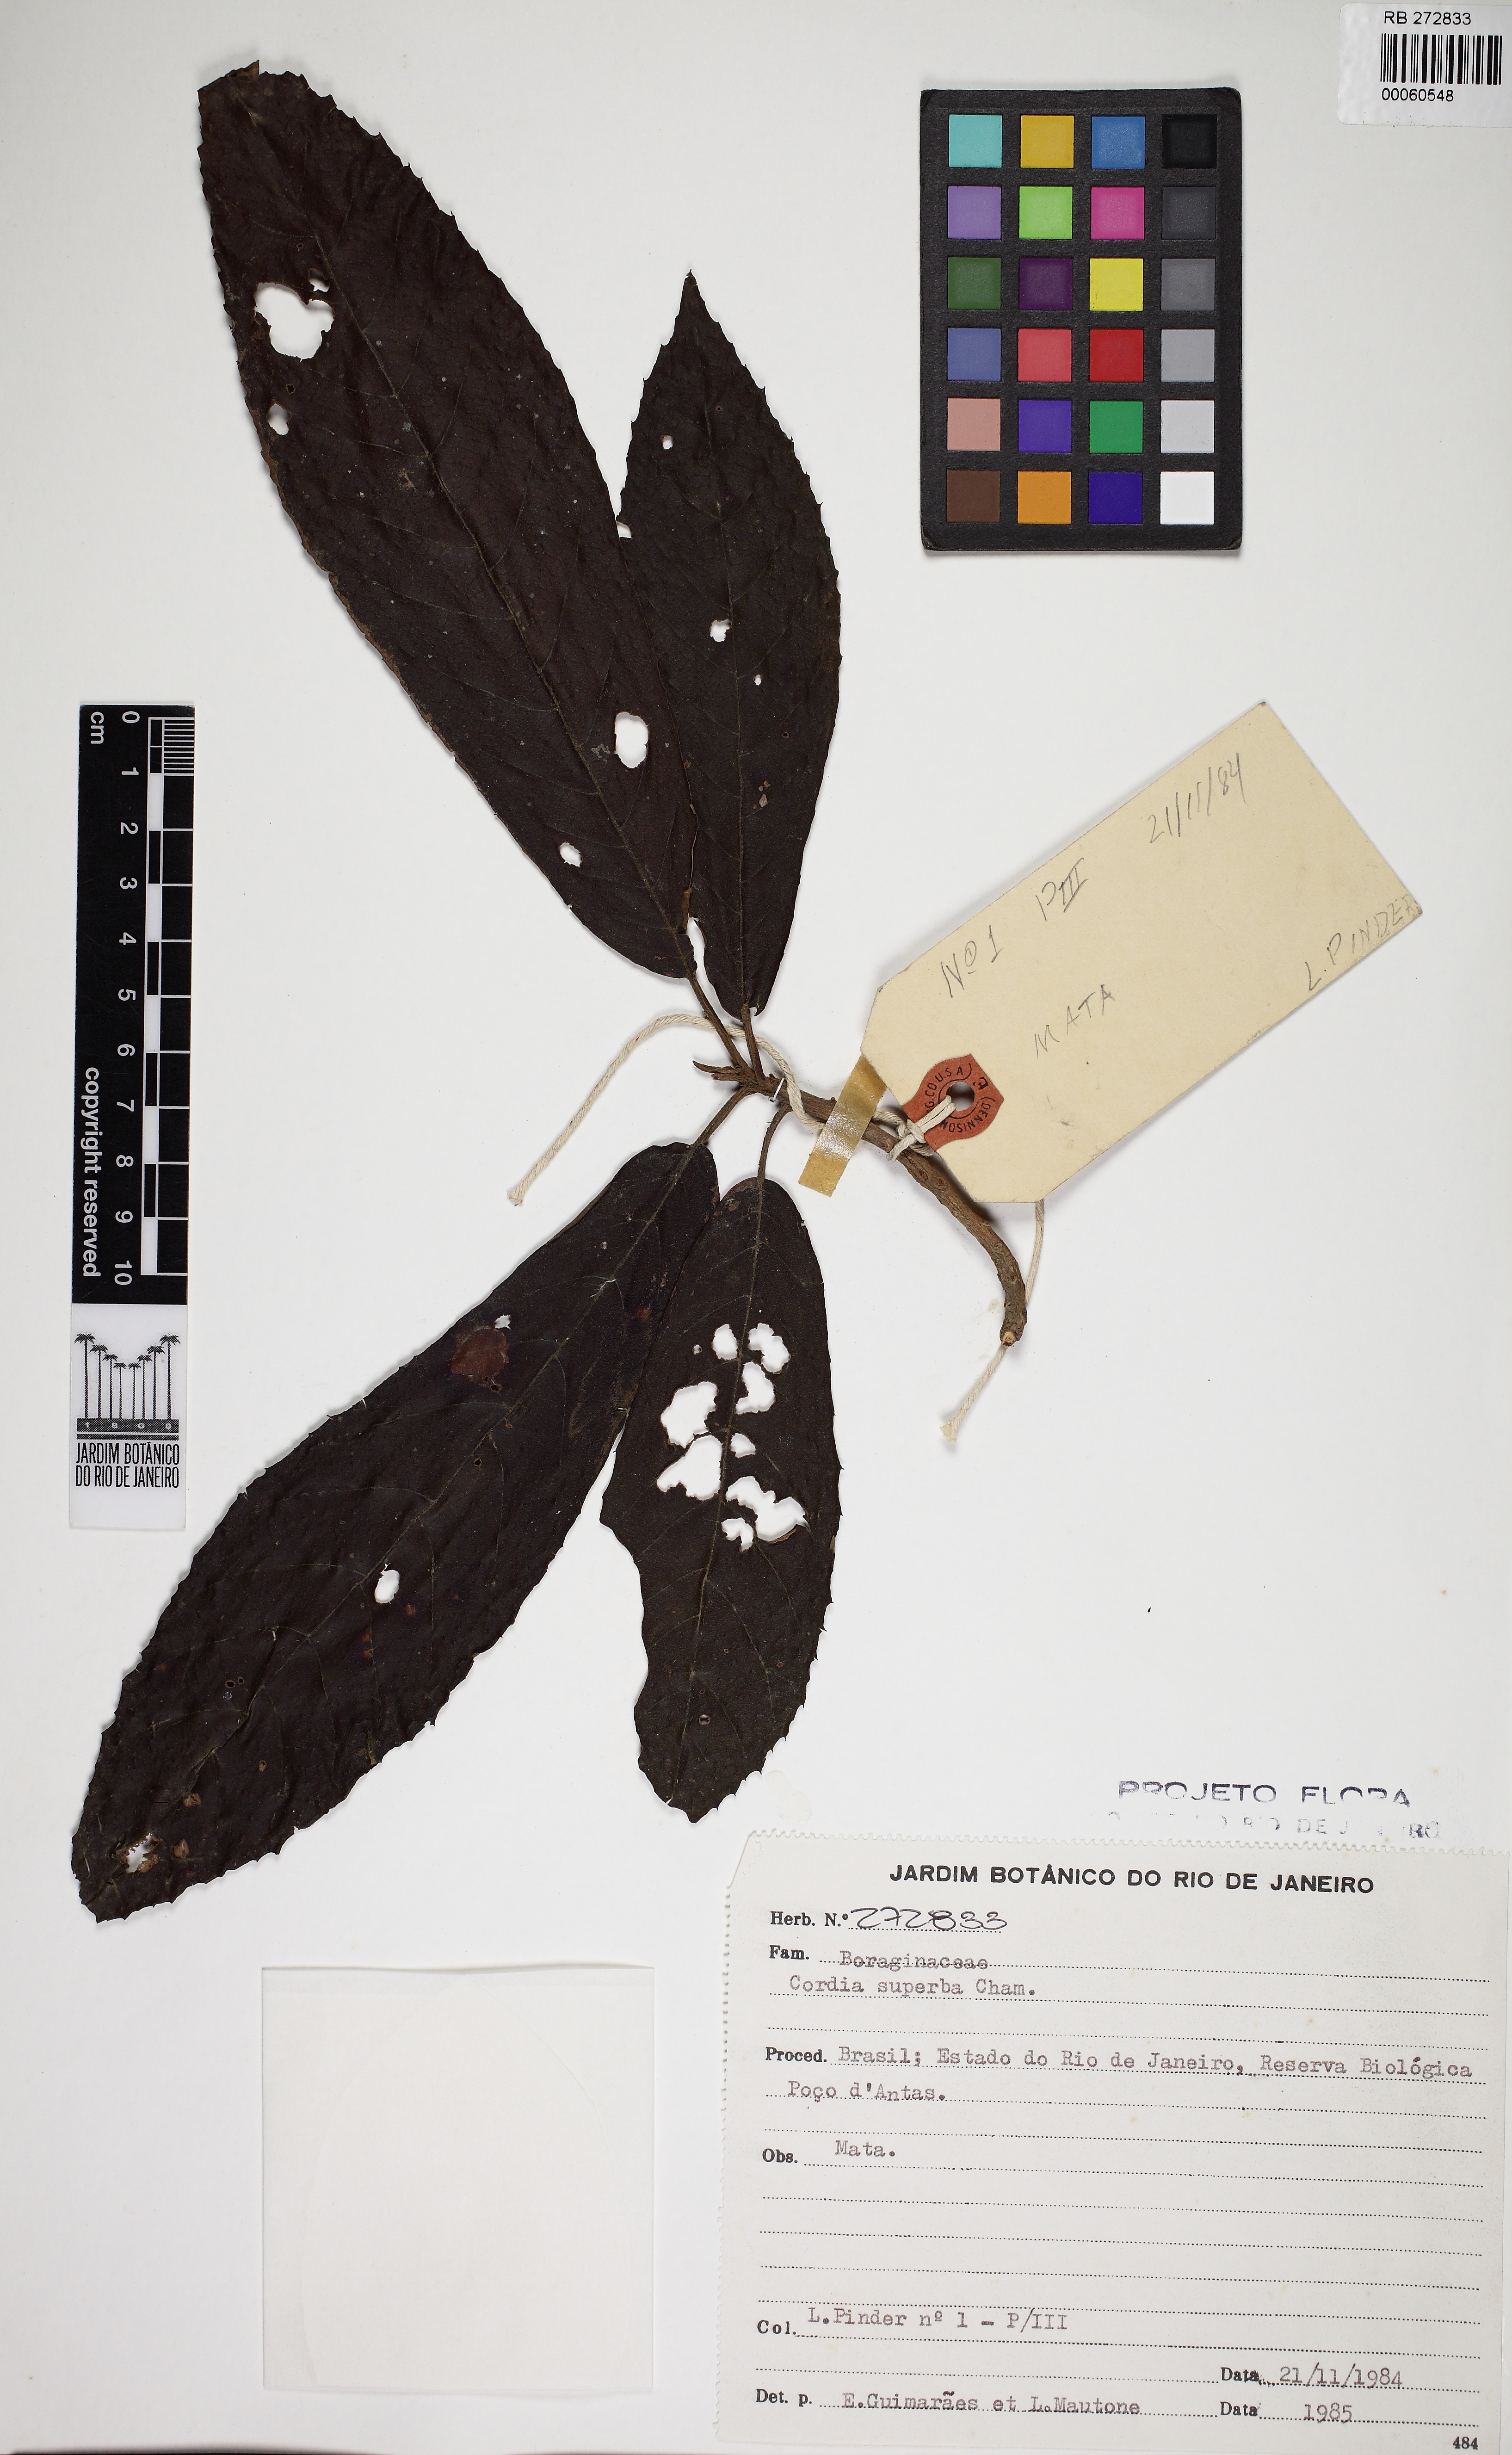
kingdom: Plantae
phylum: Tracheophyta
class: Magnoliopsida
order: Boraginales
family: Cordiaceae
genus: Cordia
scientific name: Cordia superba
